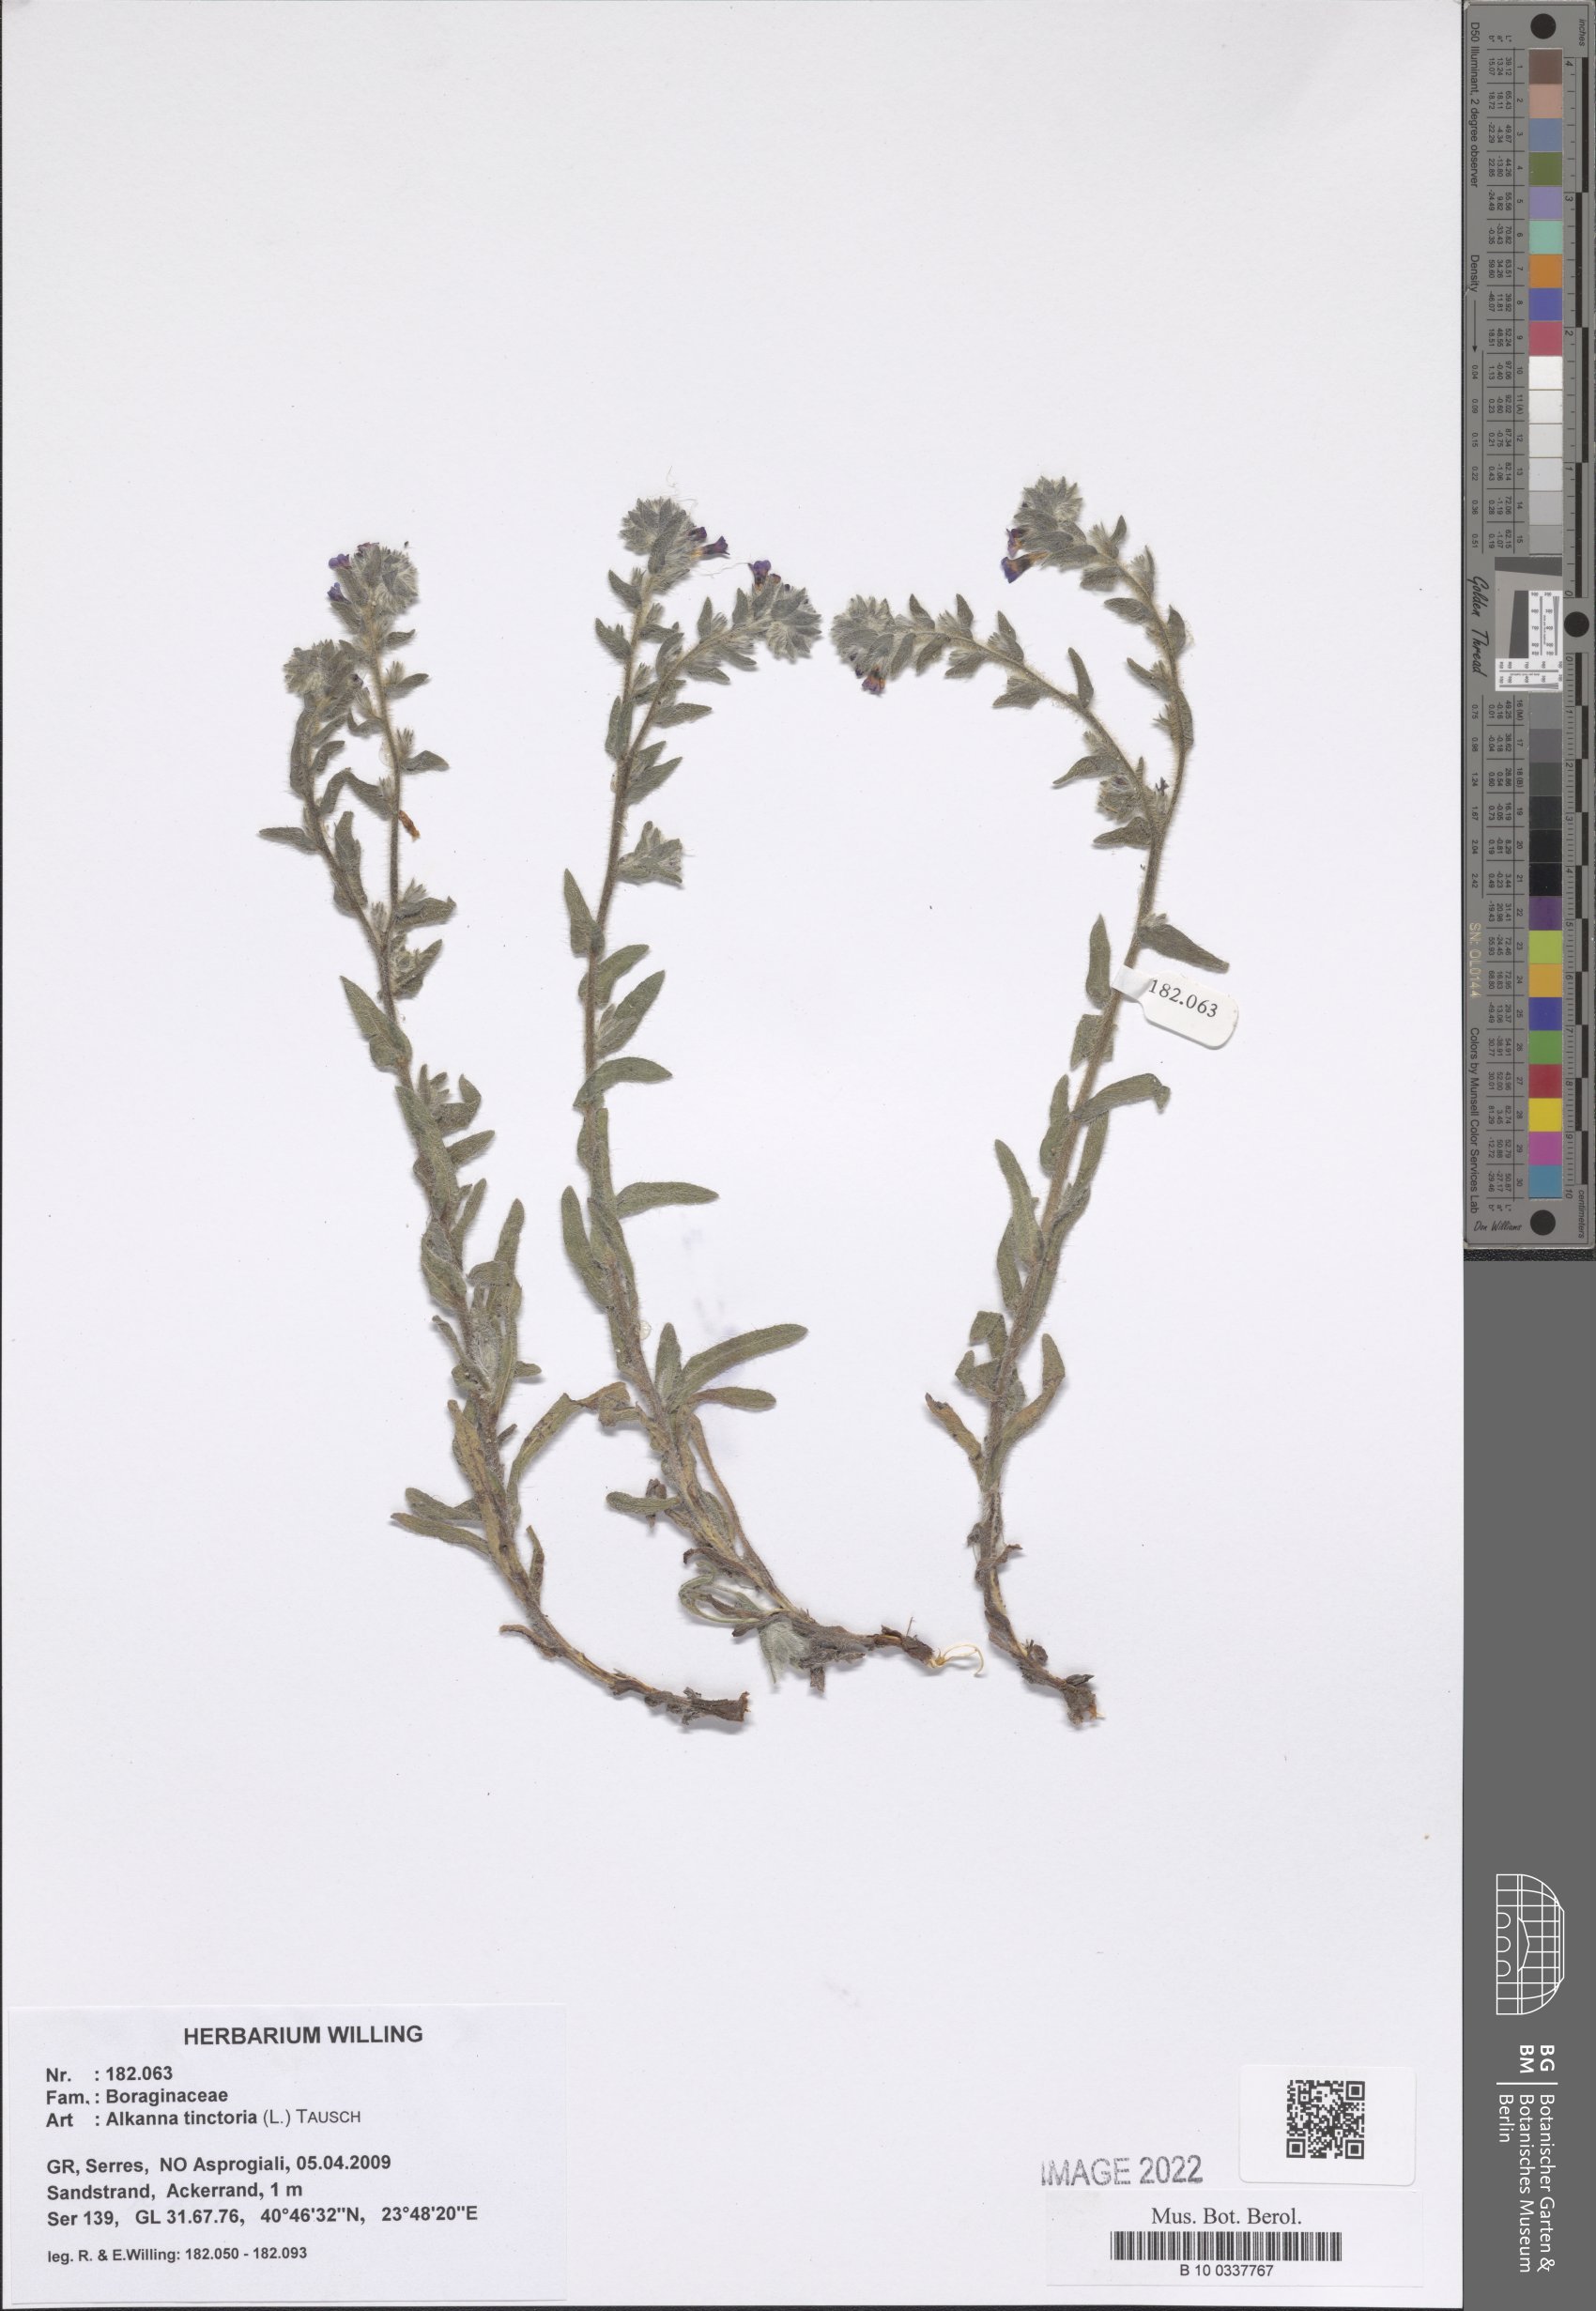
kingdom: Plantae
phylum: Tracheophyta
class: Magnoliopsida
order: Boraginales
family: Boraginaceae
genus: Alkanna
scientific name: Alkanna tinctoria
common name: Dyer's-alkanet
